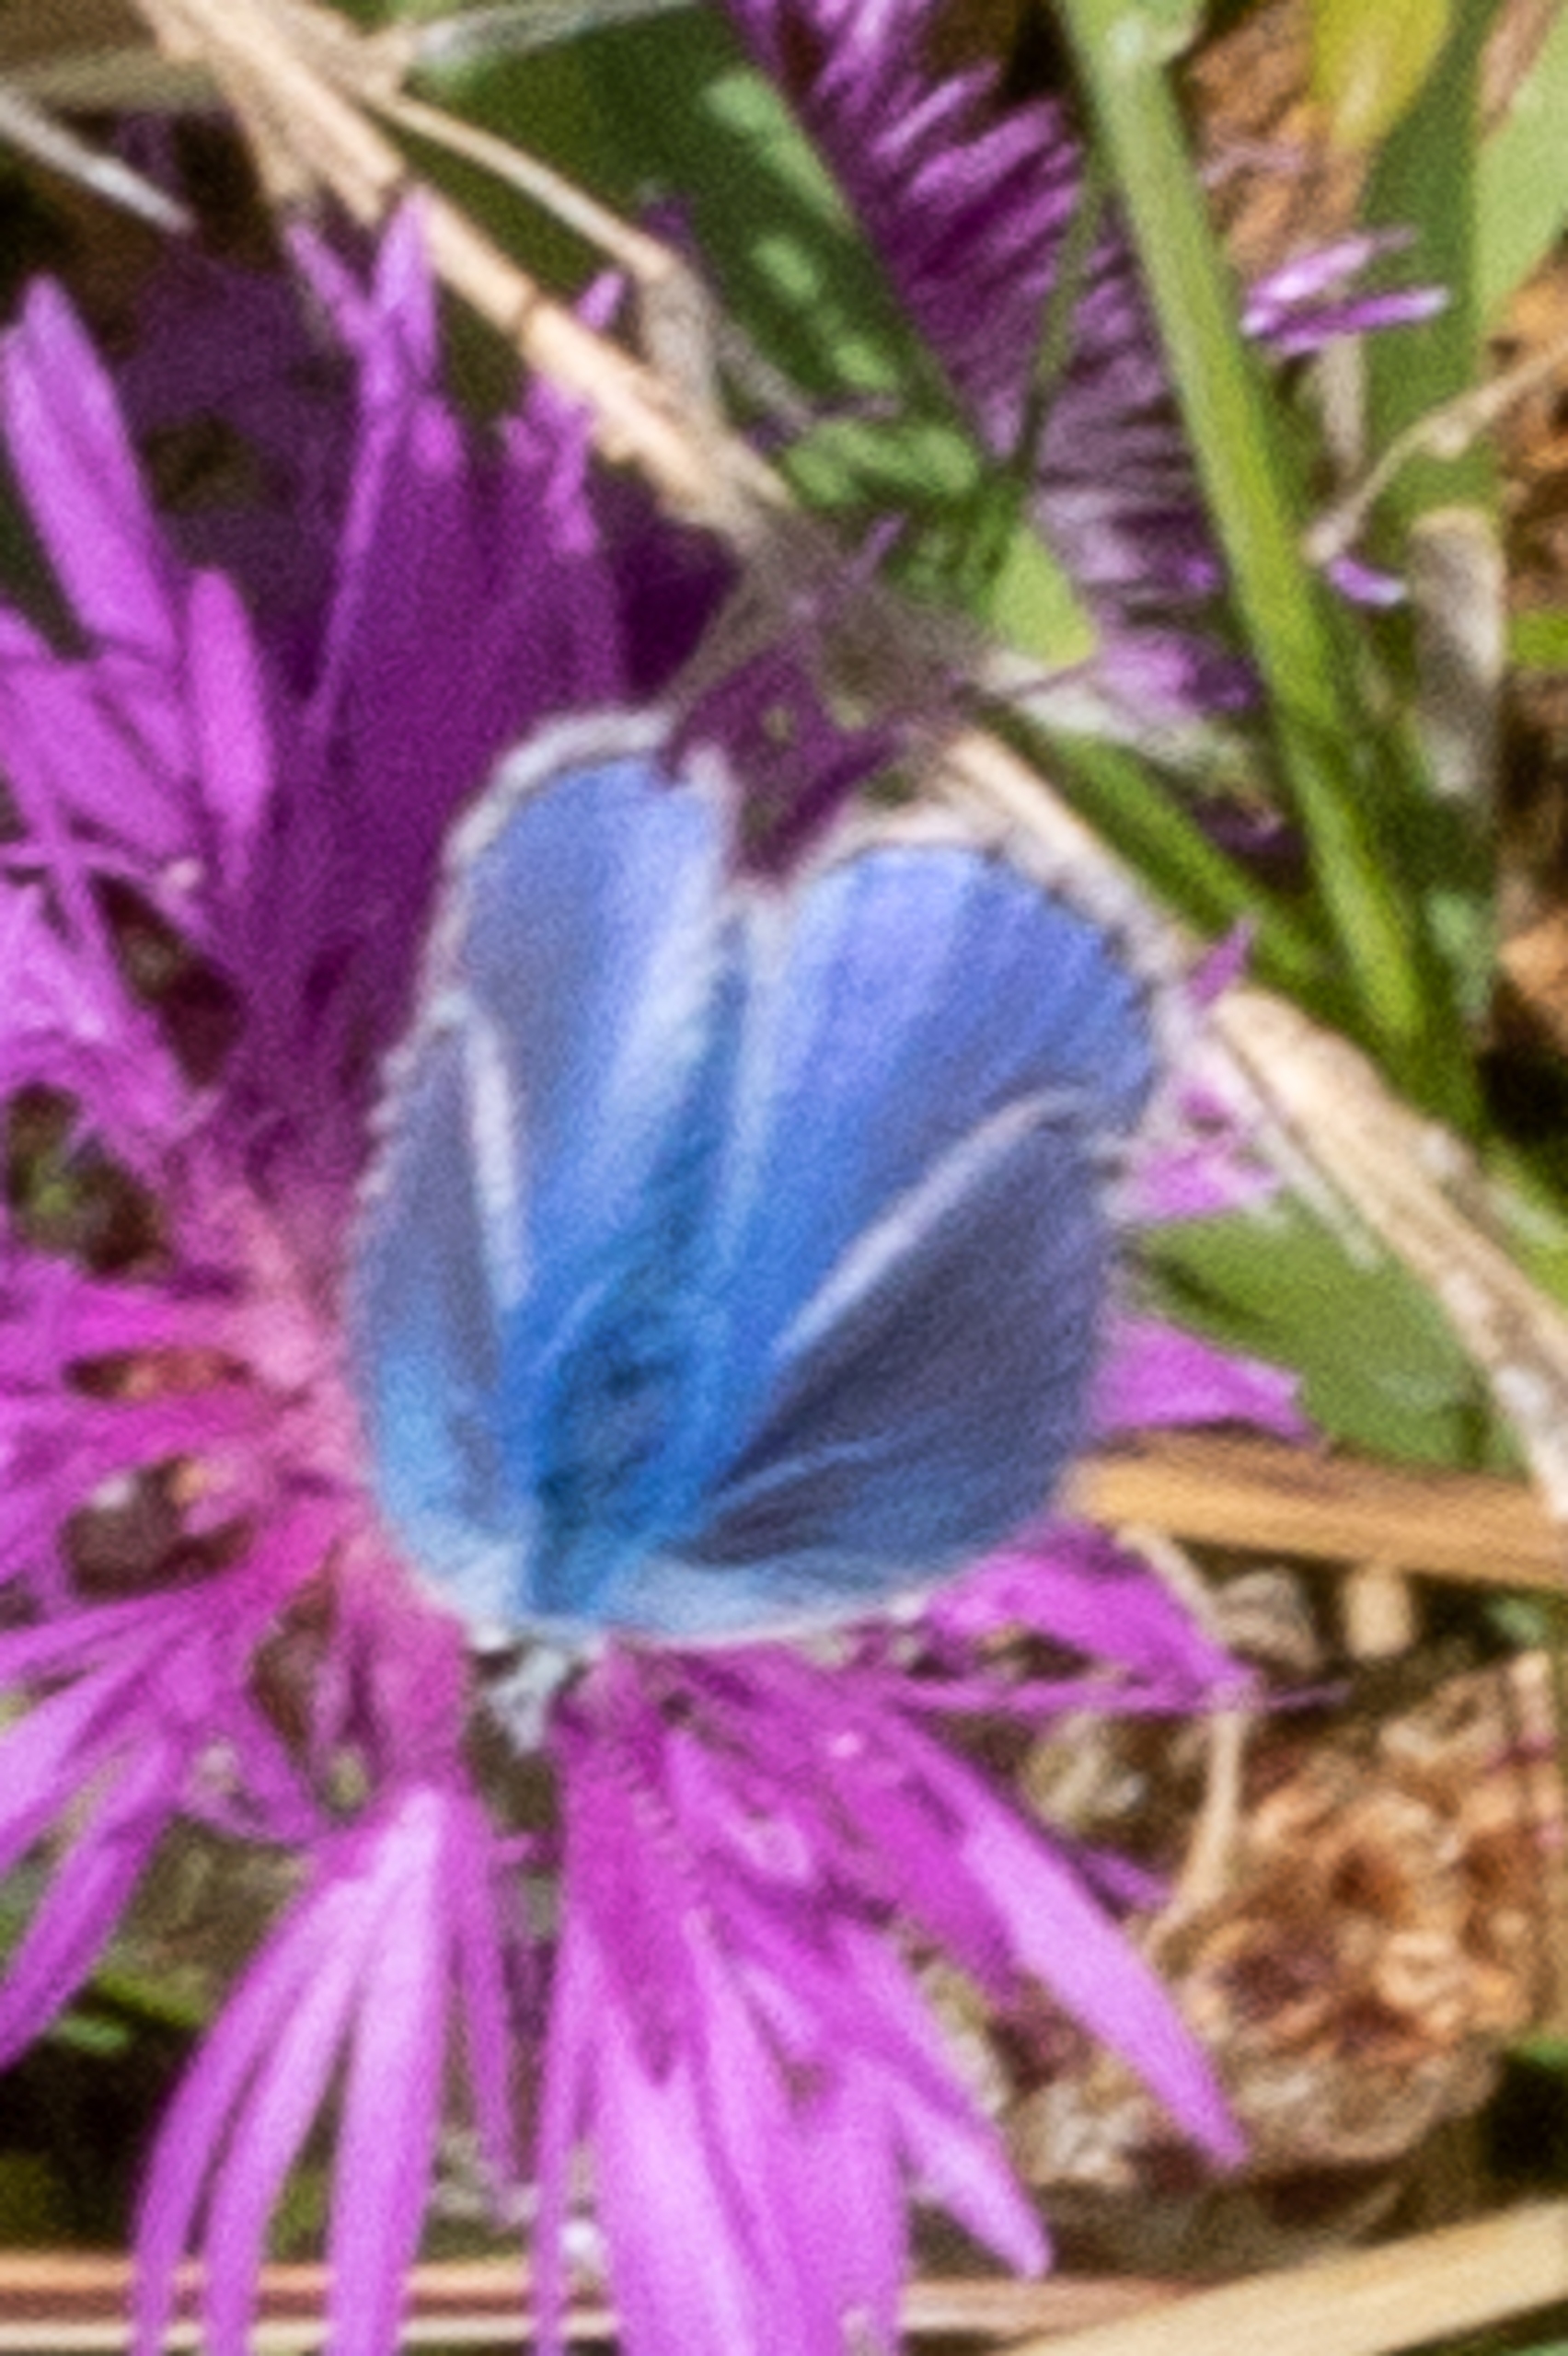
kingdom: Animalia
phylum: Arthropoda
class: Insecta
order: Lepidoptera
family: Lycaenidae
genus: Polyommatus
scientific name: Polyommatus icarus
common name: Almindelig blåfugl
